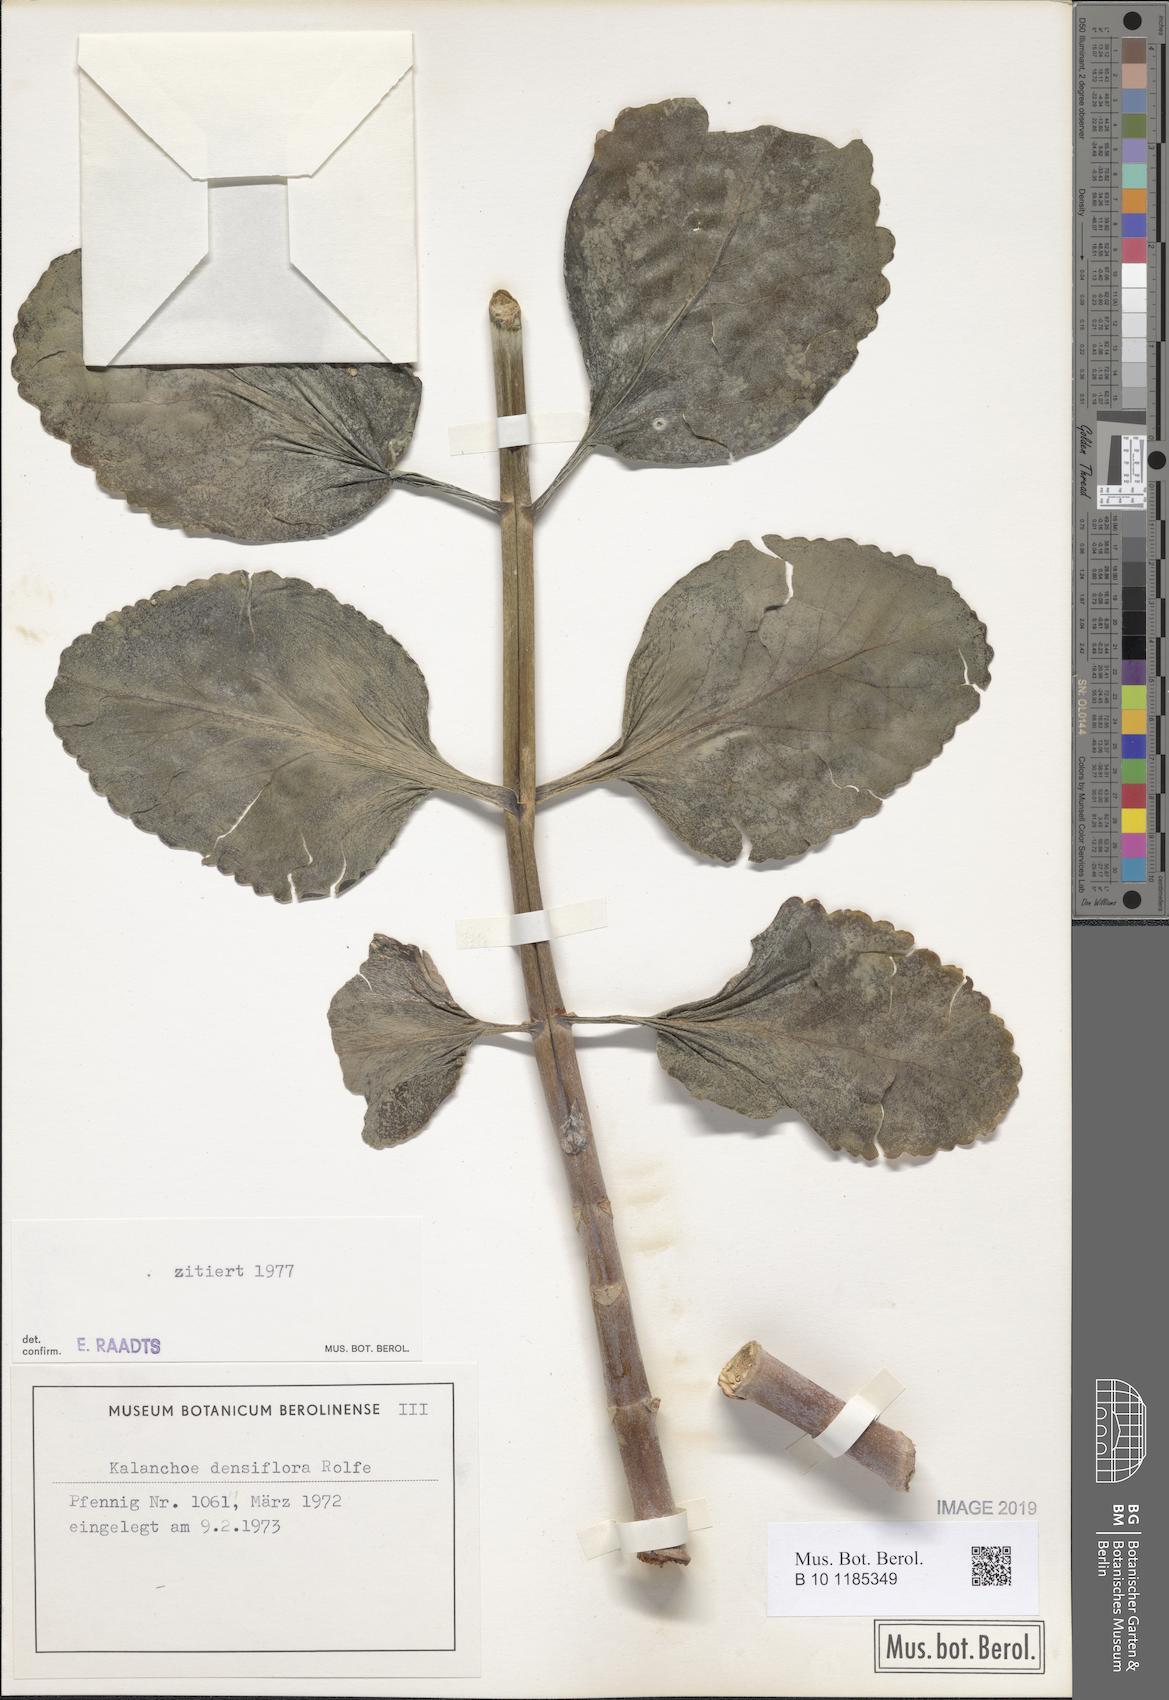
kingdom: Plantae
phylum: Tracheophyta
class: Magnoliopsida
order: Saxifragales
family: Crassulaceae
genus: Kalanchoe
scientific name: Kalanchoe densiflora
